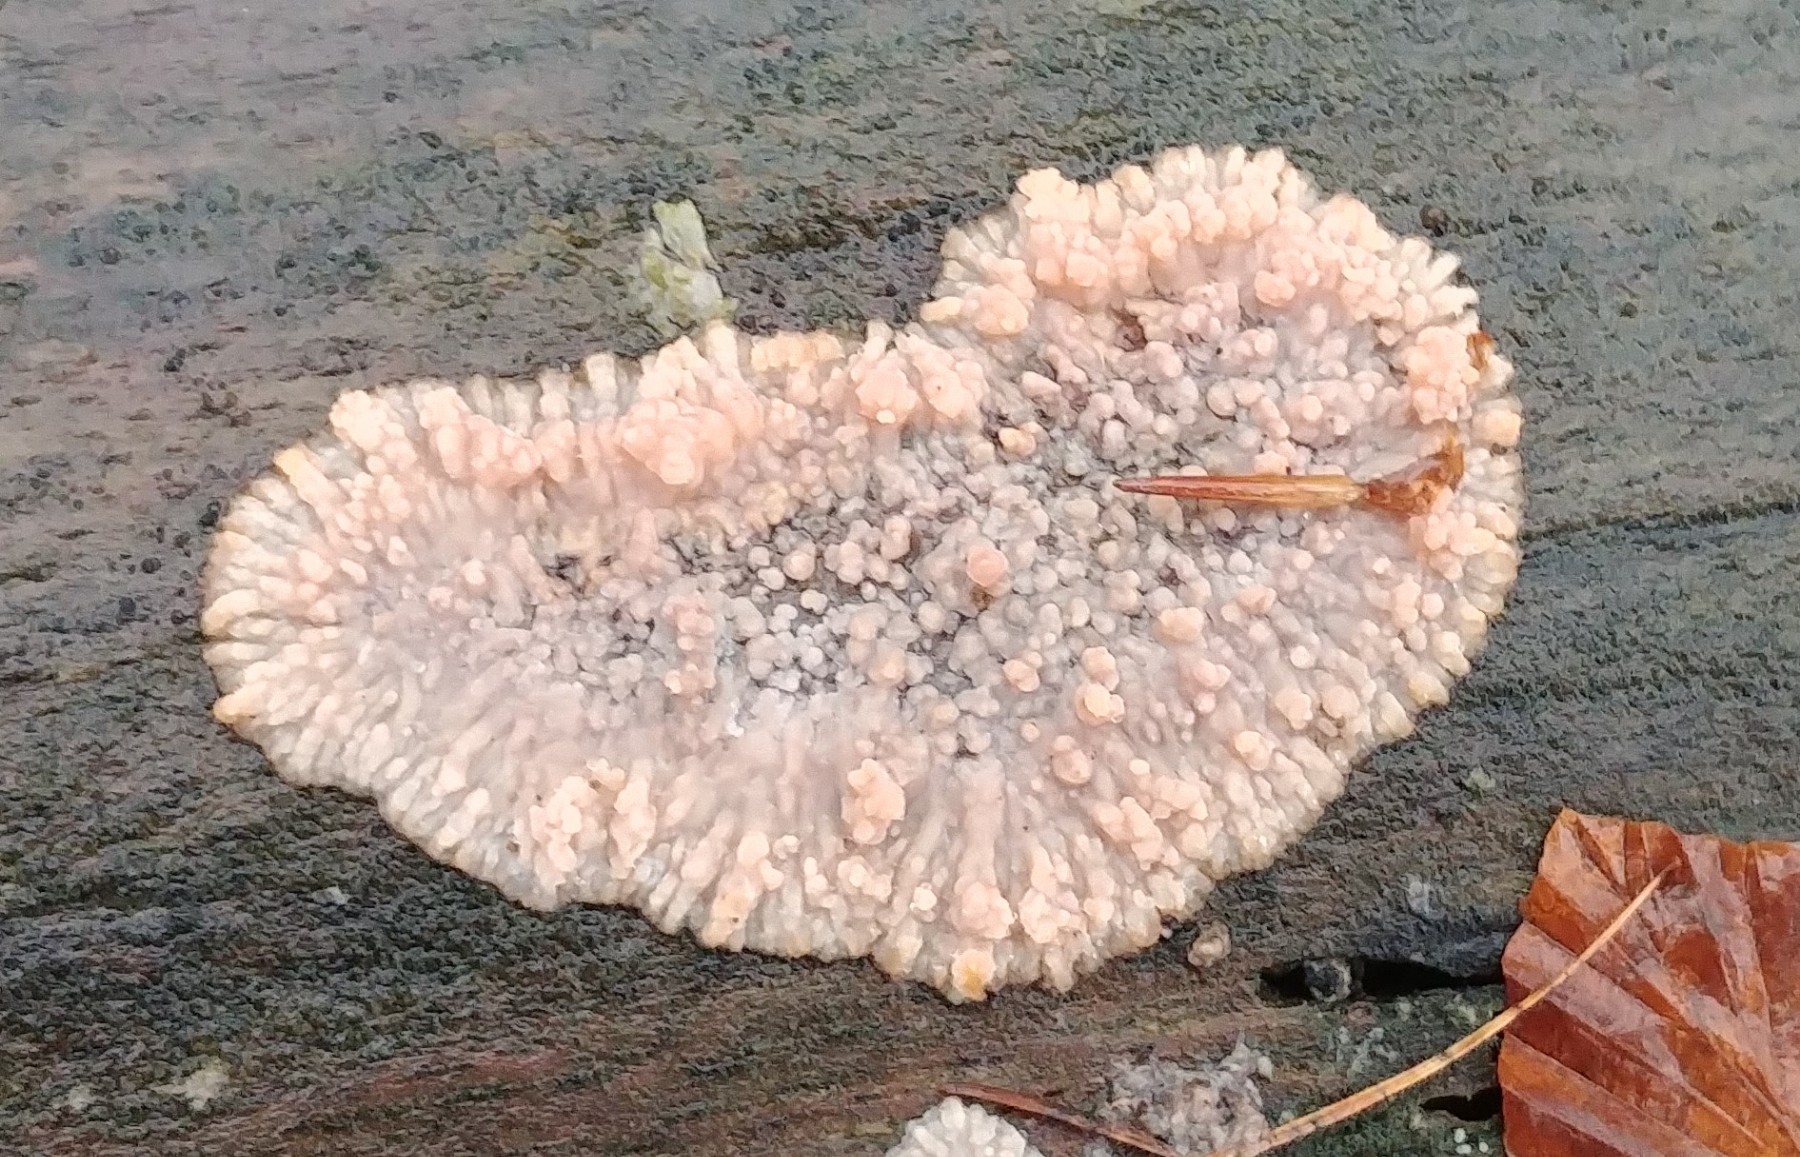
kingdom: Fungi
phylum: Basidiomycota
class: Agaricomycetes
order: Polyporales
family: Meruliaceae
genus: Phlebia
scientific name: Phlebia radiata
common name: stråle-åresvamp
